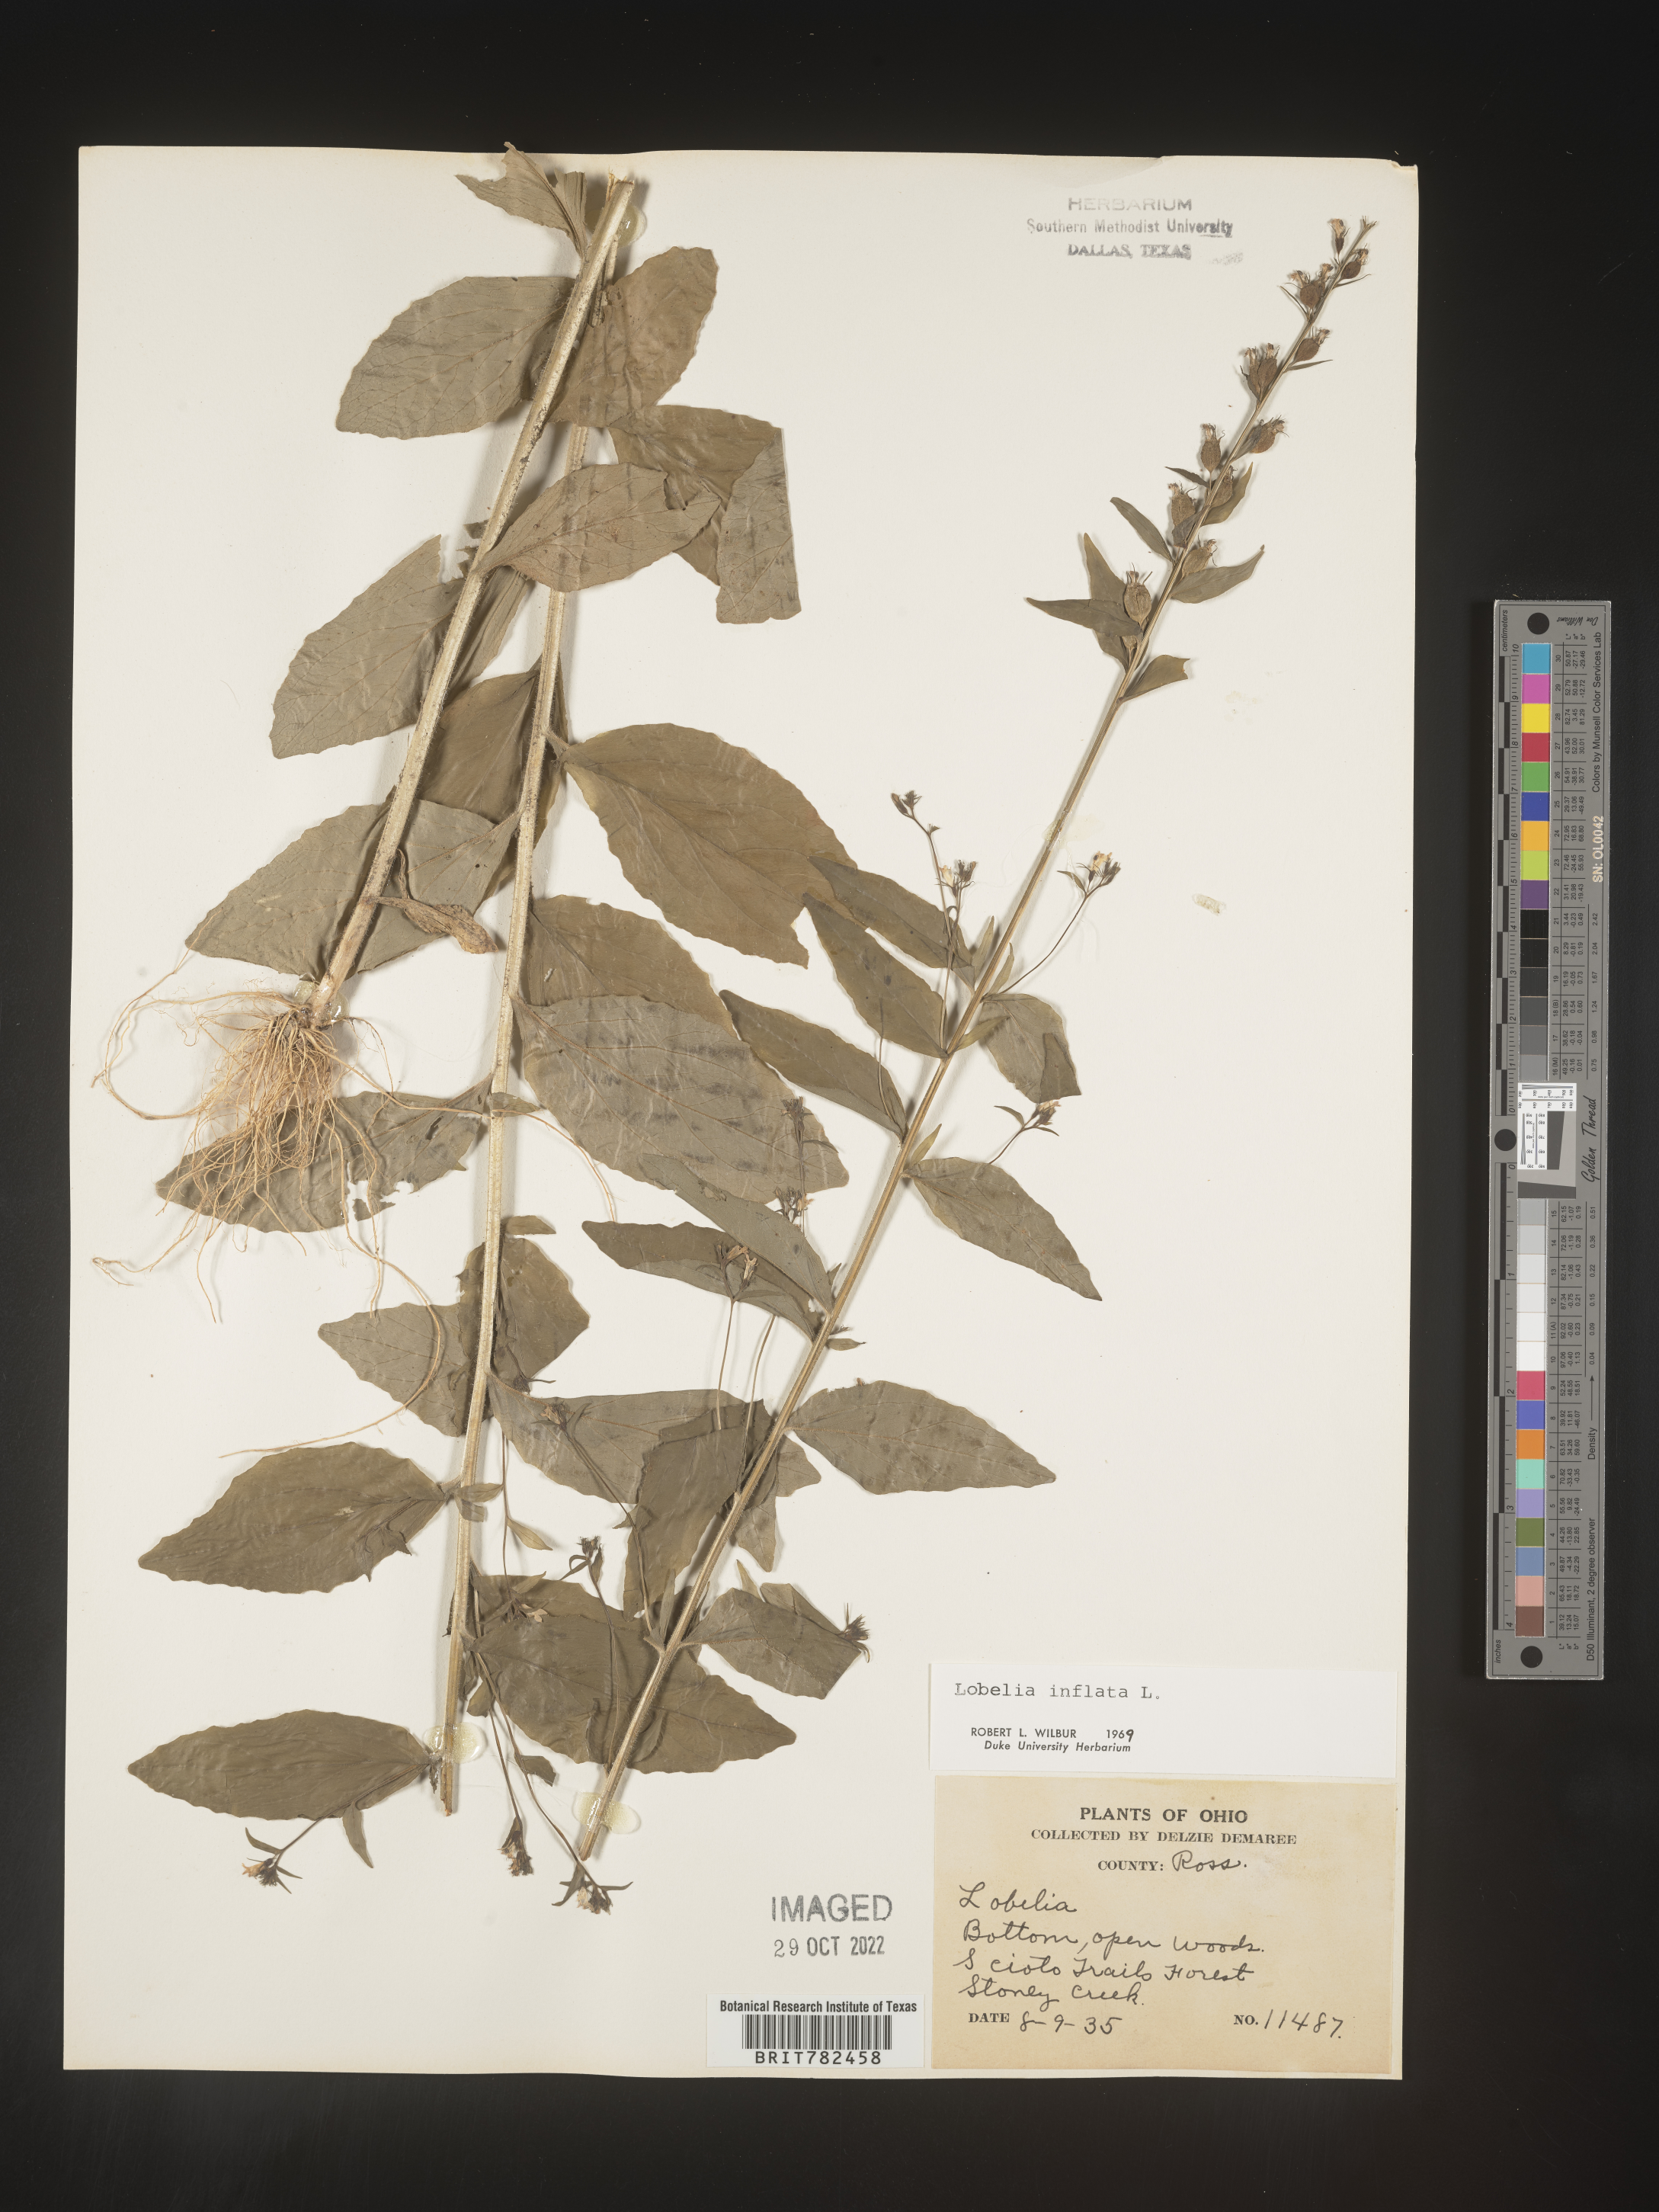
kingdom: Plantae
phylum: Tracheophyta
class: Magnoliopsida
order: Asterales
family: Campanulaceae
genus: Lobelia
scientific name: Lobelia inflata
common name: Indian tobacco
